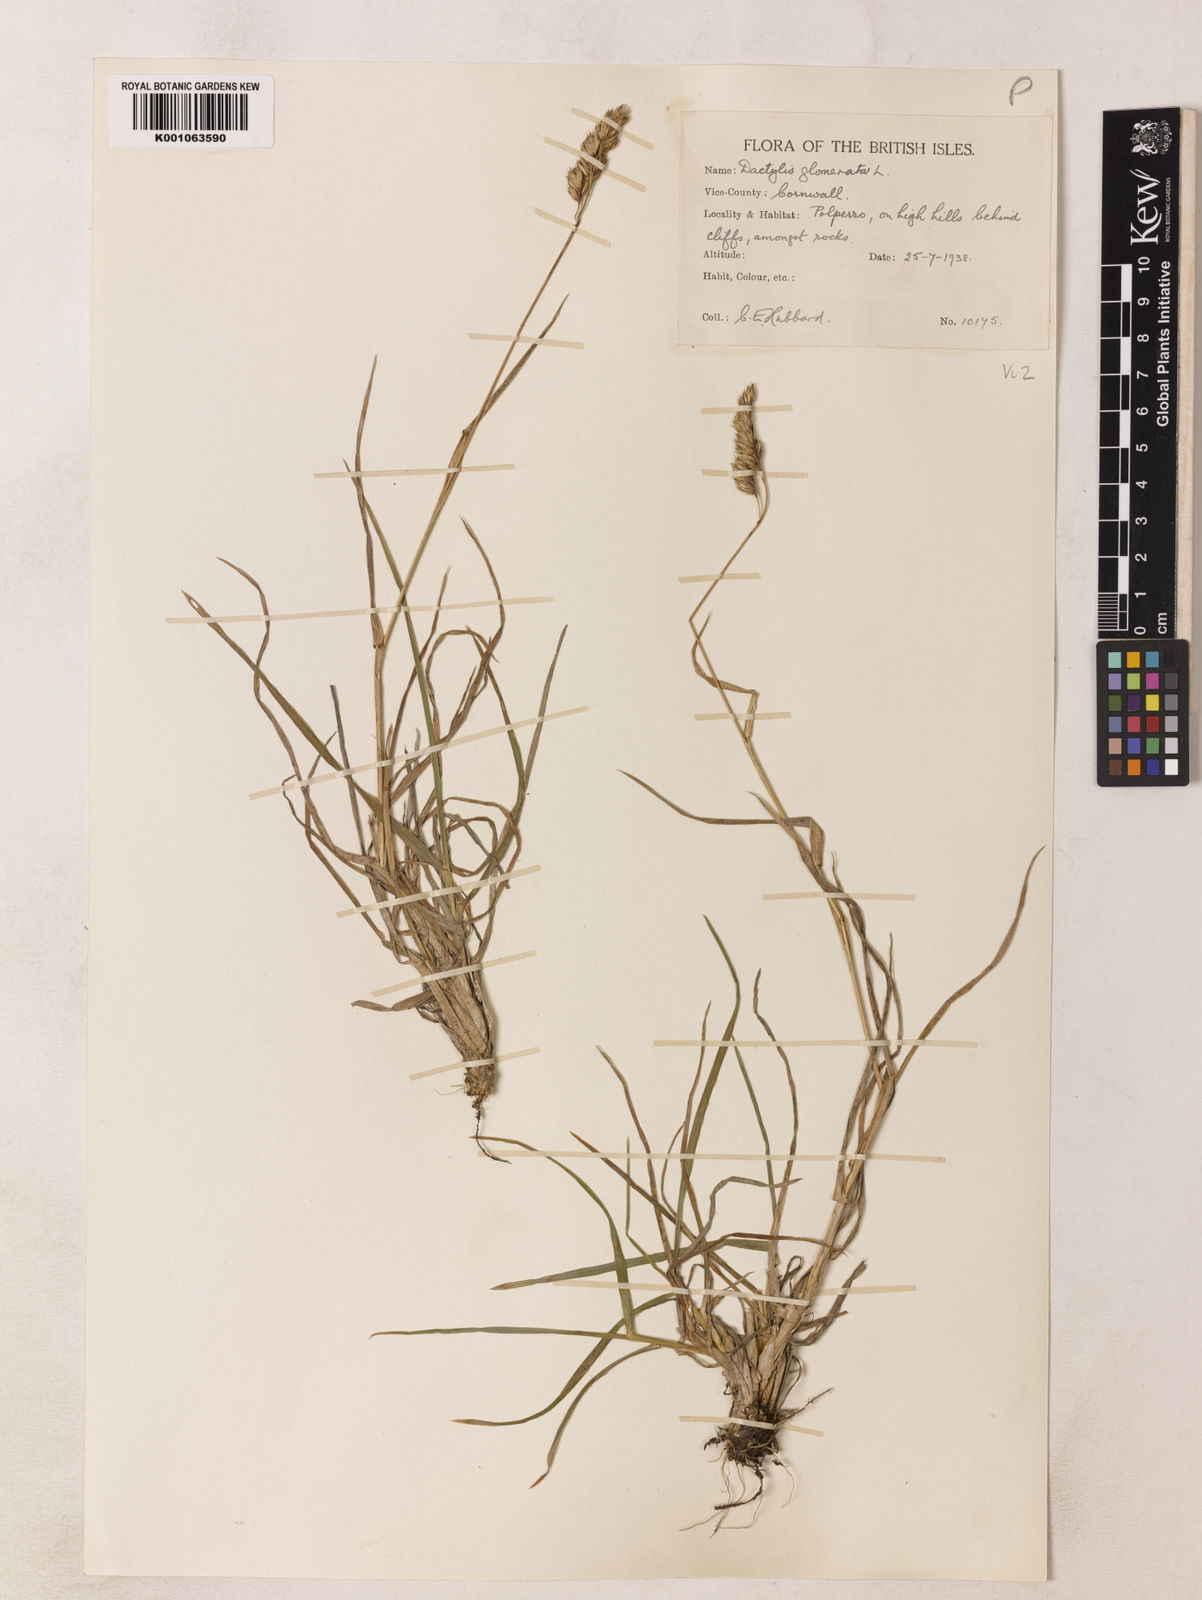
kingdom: Plantae
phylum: Tracheophyta
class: Liliopsida
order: Poales
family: Poaceae
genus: Dactylis
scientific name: Dactylis glomerata
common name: Orchardgrass
